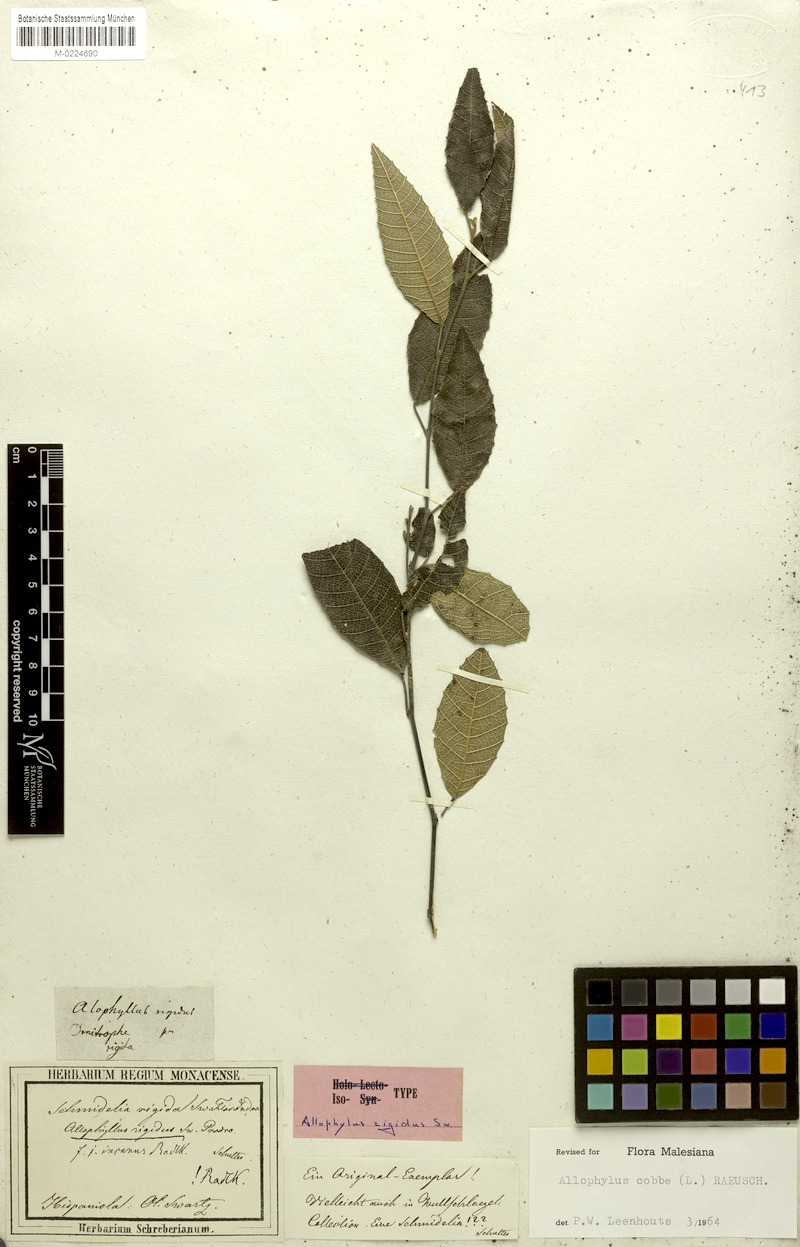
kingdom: Plantae
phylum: Tracheophyta
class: Magnoliopsida
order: Sapindales
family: Sapindaceae
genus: Allophylus
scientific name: Allophylus rigidus
